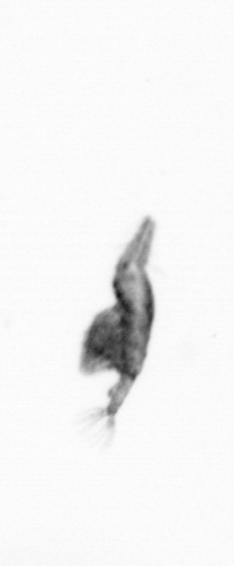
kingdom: Animalia
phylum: Arthropoda
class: Copepoda
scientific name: Copepoda
